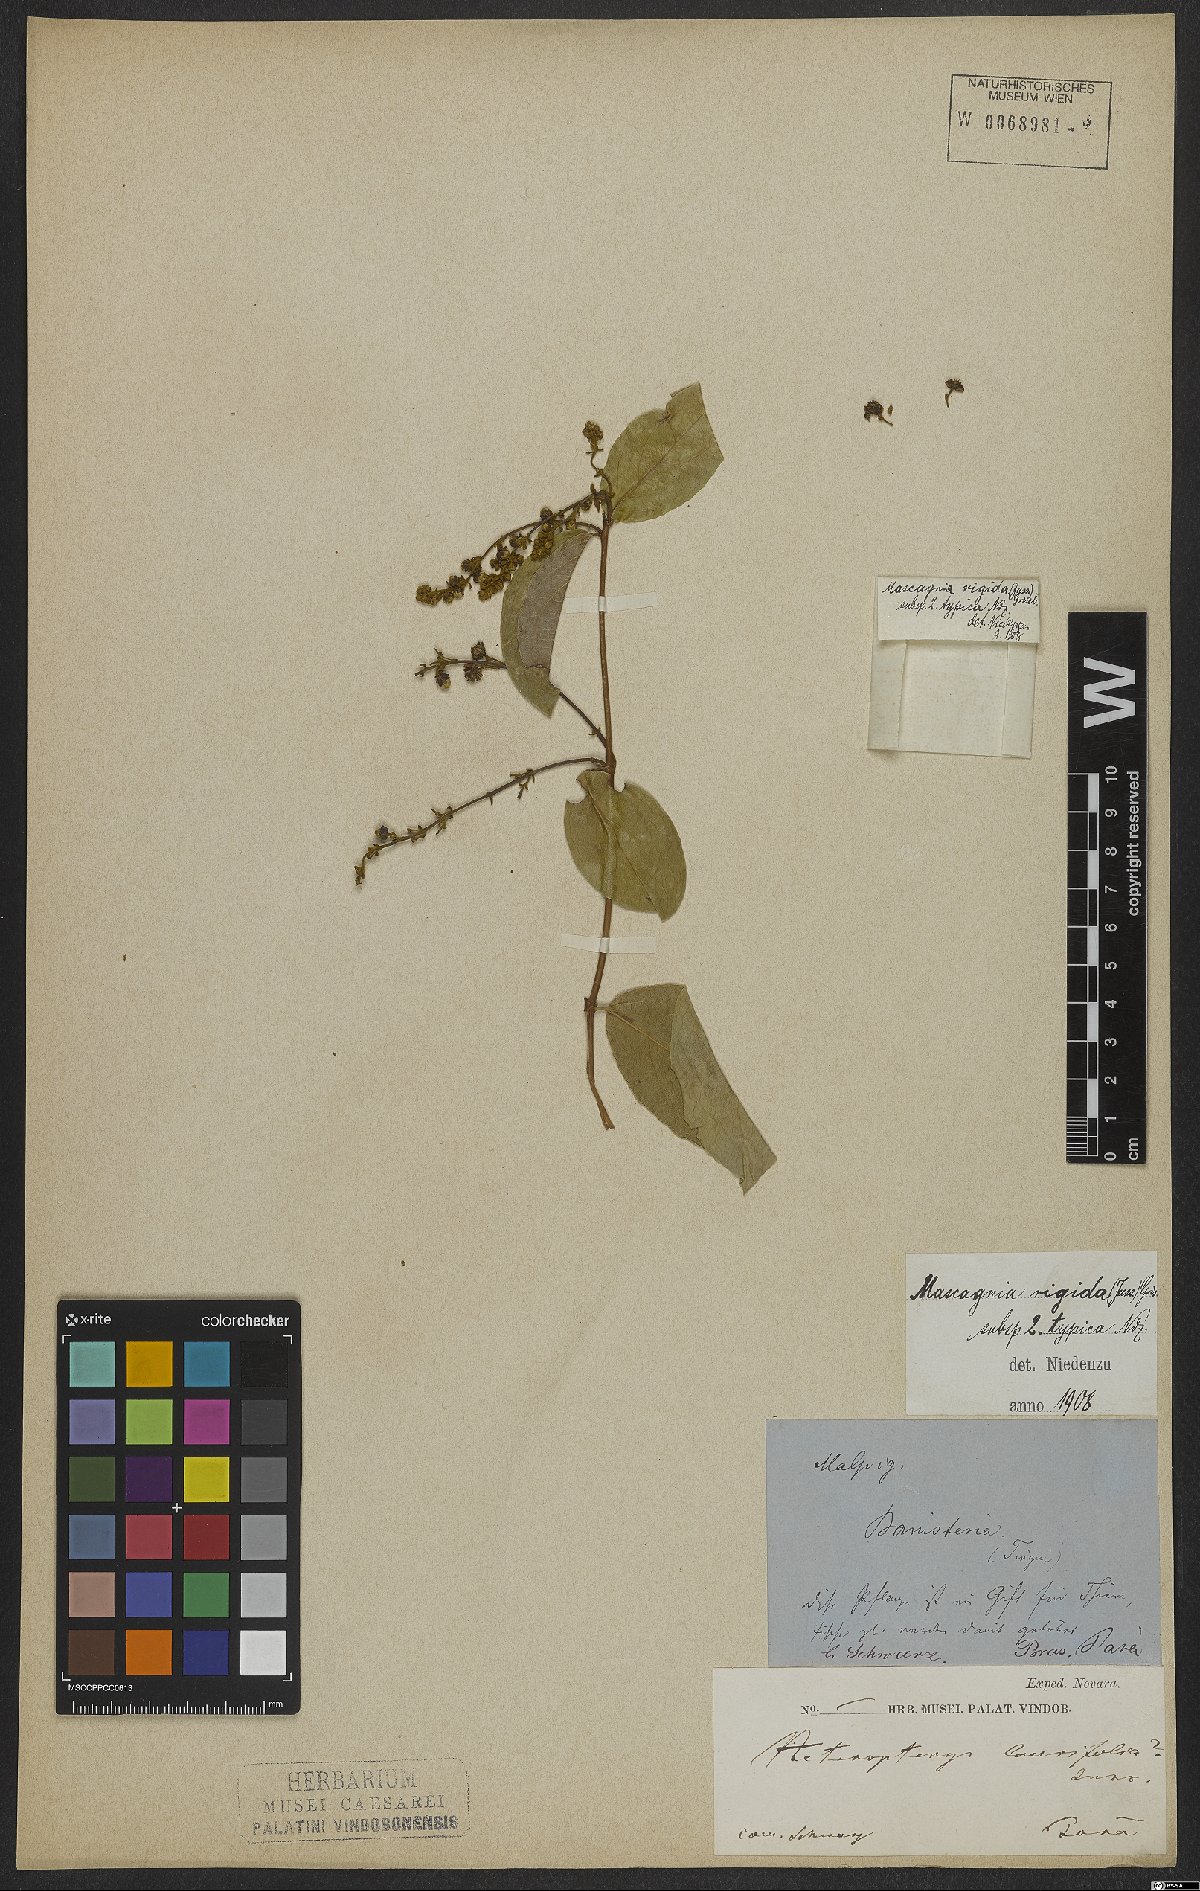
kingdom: Plantae
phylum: Tracheophyta
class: Magnoliopsida
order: Malpighiales
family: Malpighiaceae
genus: Amorimia
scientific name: Amorimia rigida
